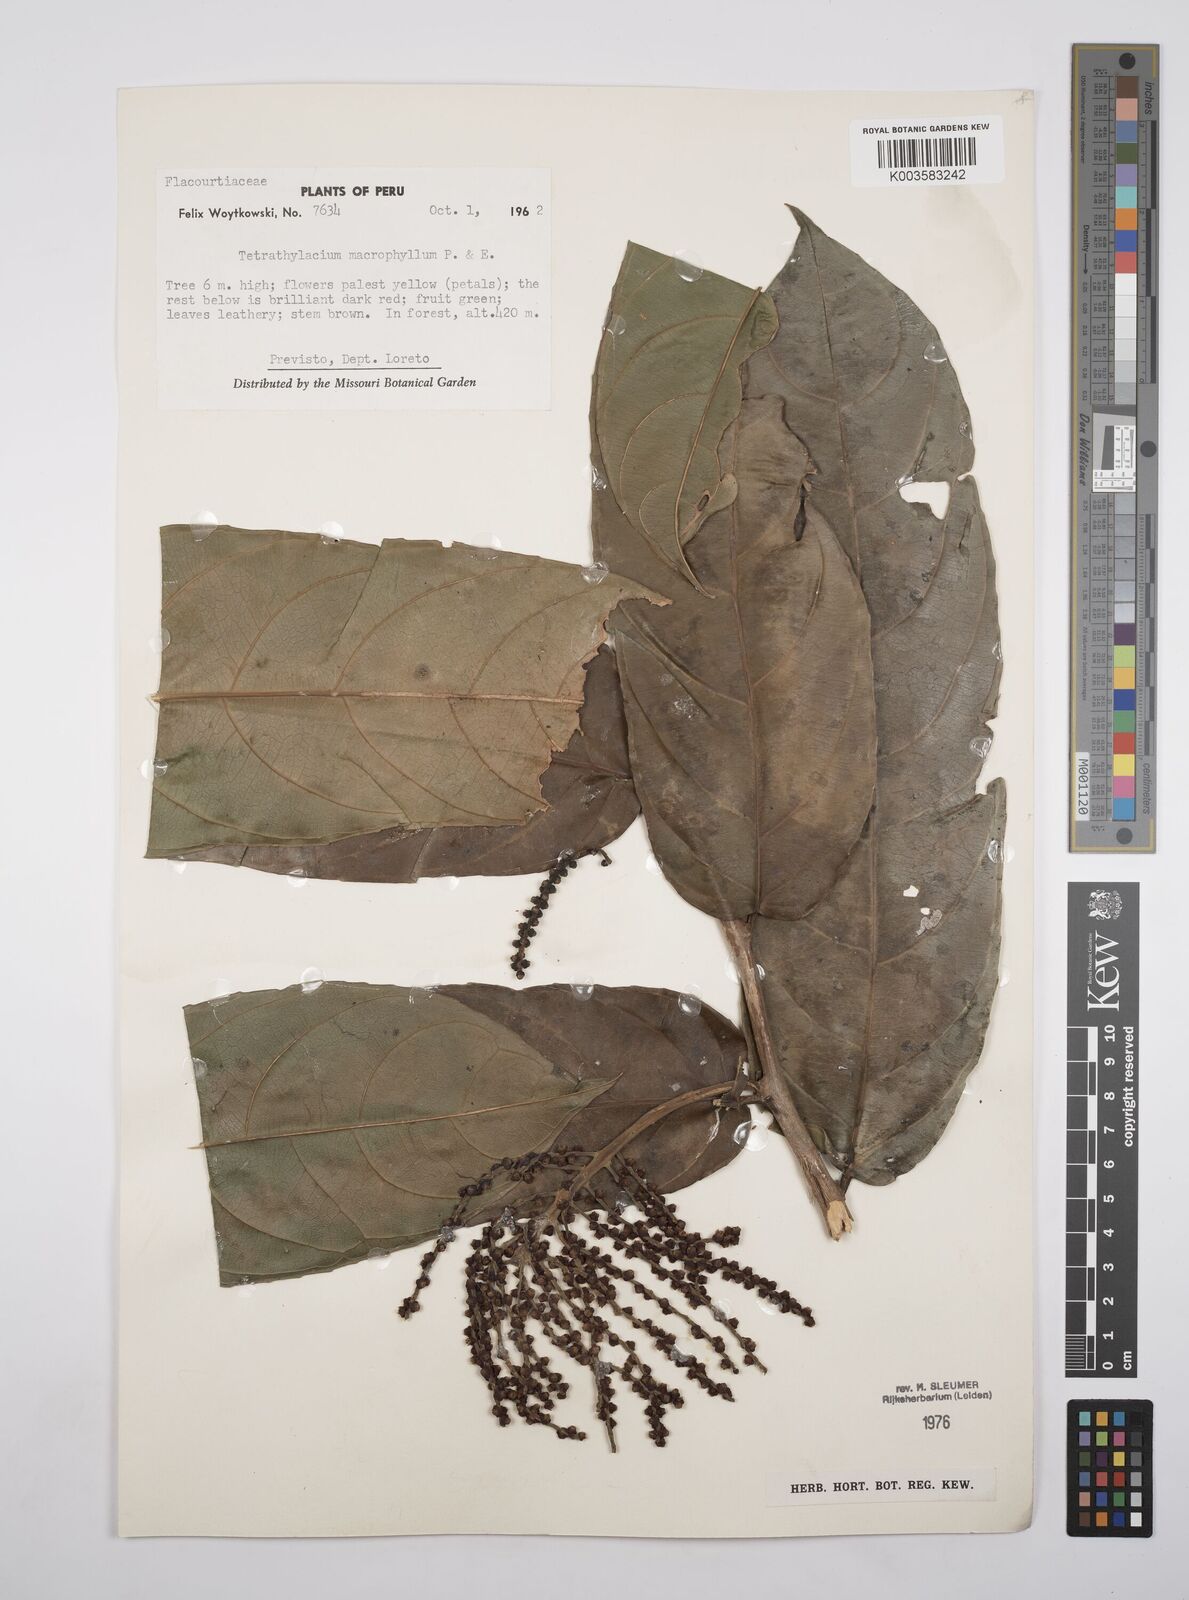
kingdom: Plantae
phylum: Tracheophyta
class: Magnoliopsida
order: Malpighiales
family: Salicaceae
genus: Tetrathylacium
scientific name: Tetrathylacium macrophyllum
